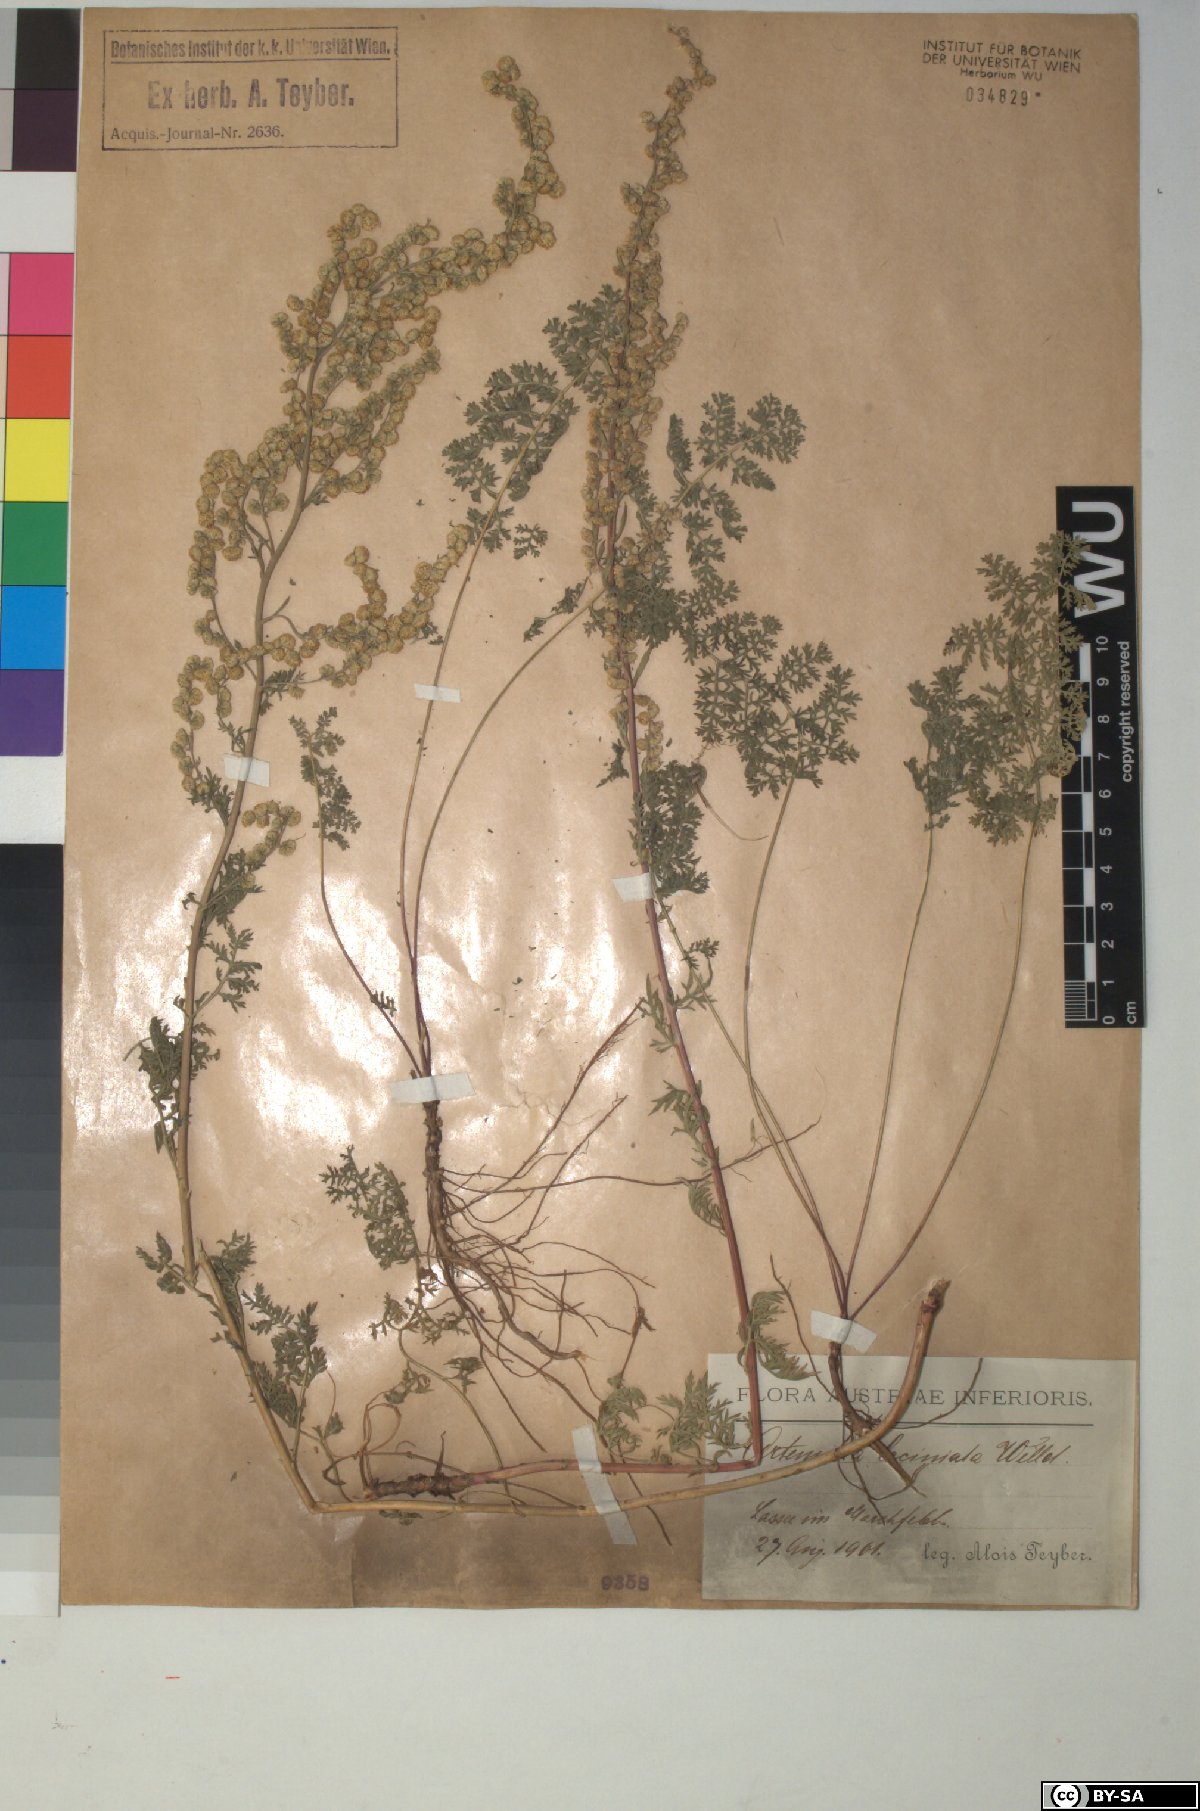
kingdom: Plantae
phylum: Tracheophyta
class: Magnoliopsida
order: Asterales
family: Asteraceae
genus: Artemisia
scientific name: Artemisia laciniata
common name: Siberian wormwood
